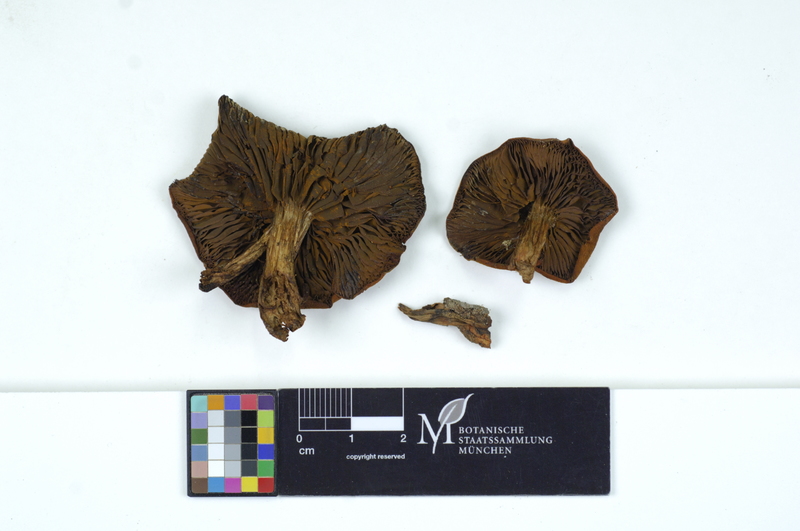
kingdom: Fungi
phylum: Basidiomycota
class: Agaricomycetes
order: Agaricales
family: Cortinariaceae
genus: Cortinarius
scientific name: Cortinarius purpureus
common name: Imperial webcap
